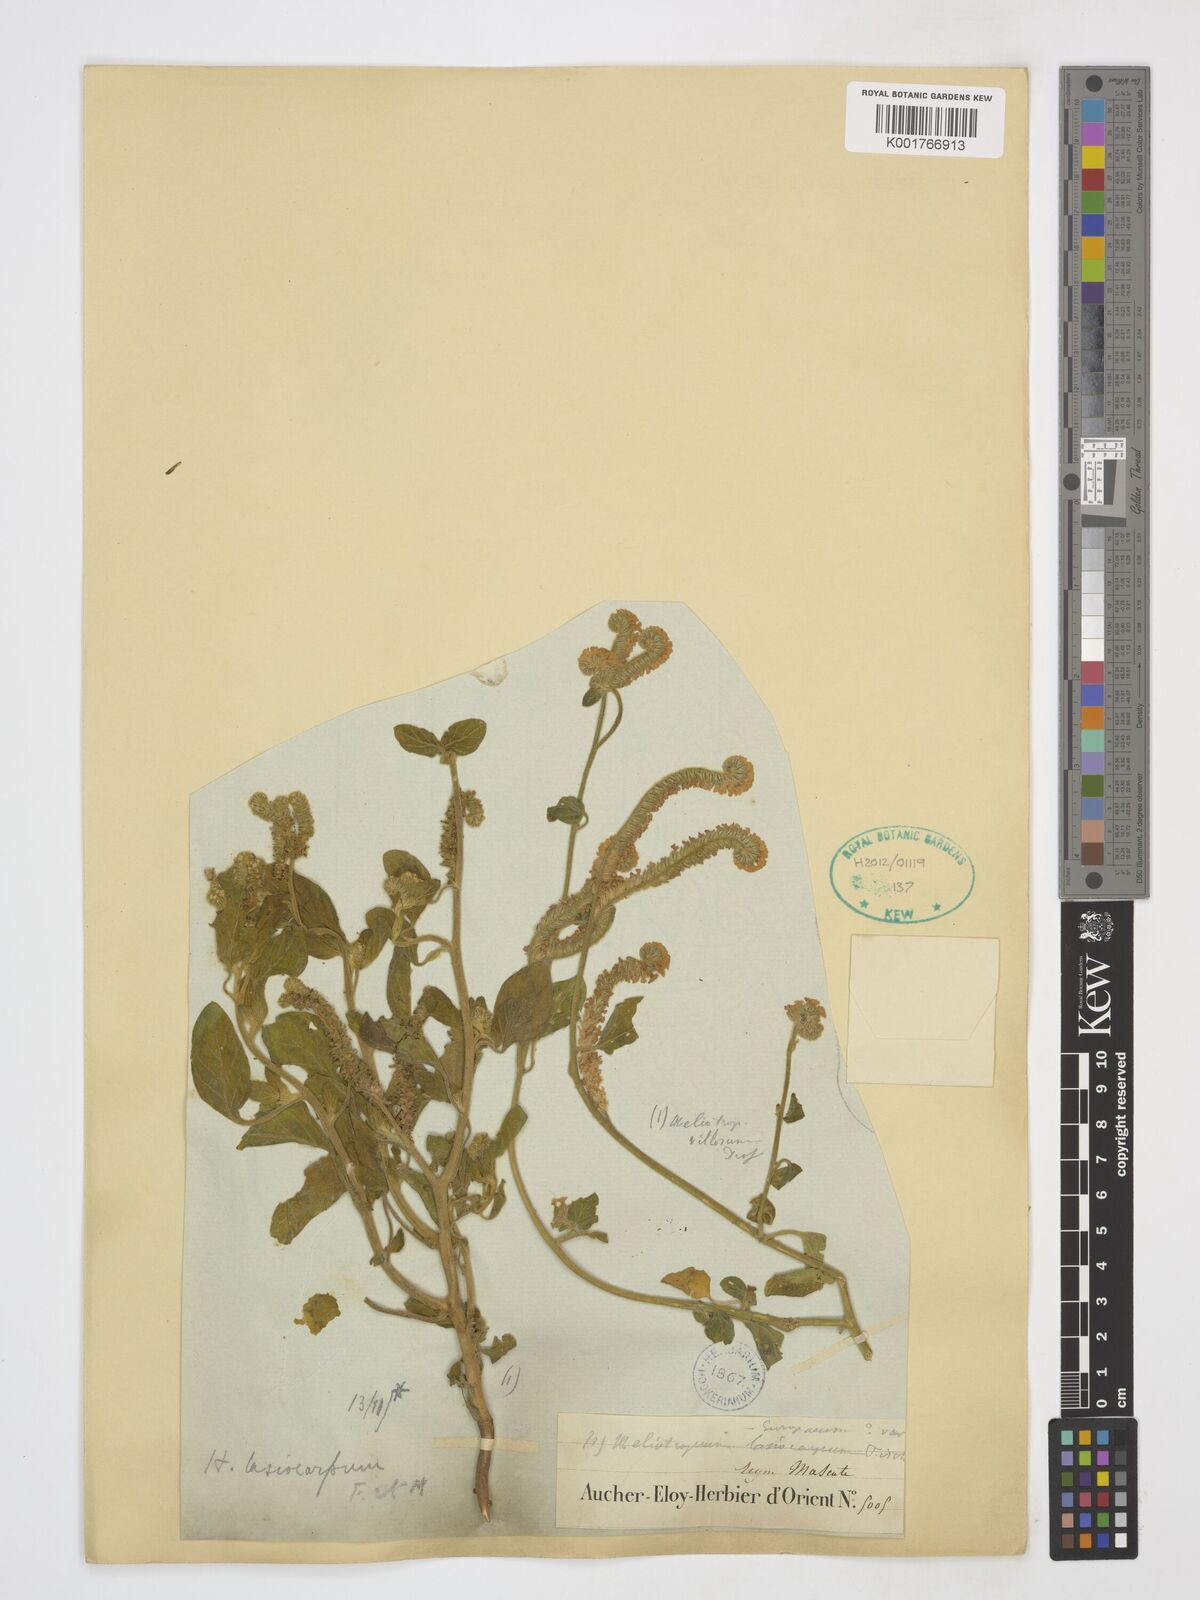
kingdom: Plantae
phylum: Tracheophyta
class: Magnoliopsida
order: Boraginales
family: Heliotropiaceae
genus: Heliotropium
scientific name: Heliotropium lasiocarpum
